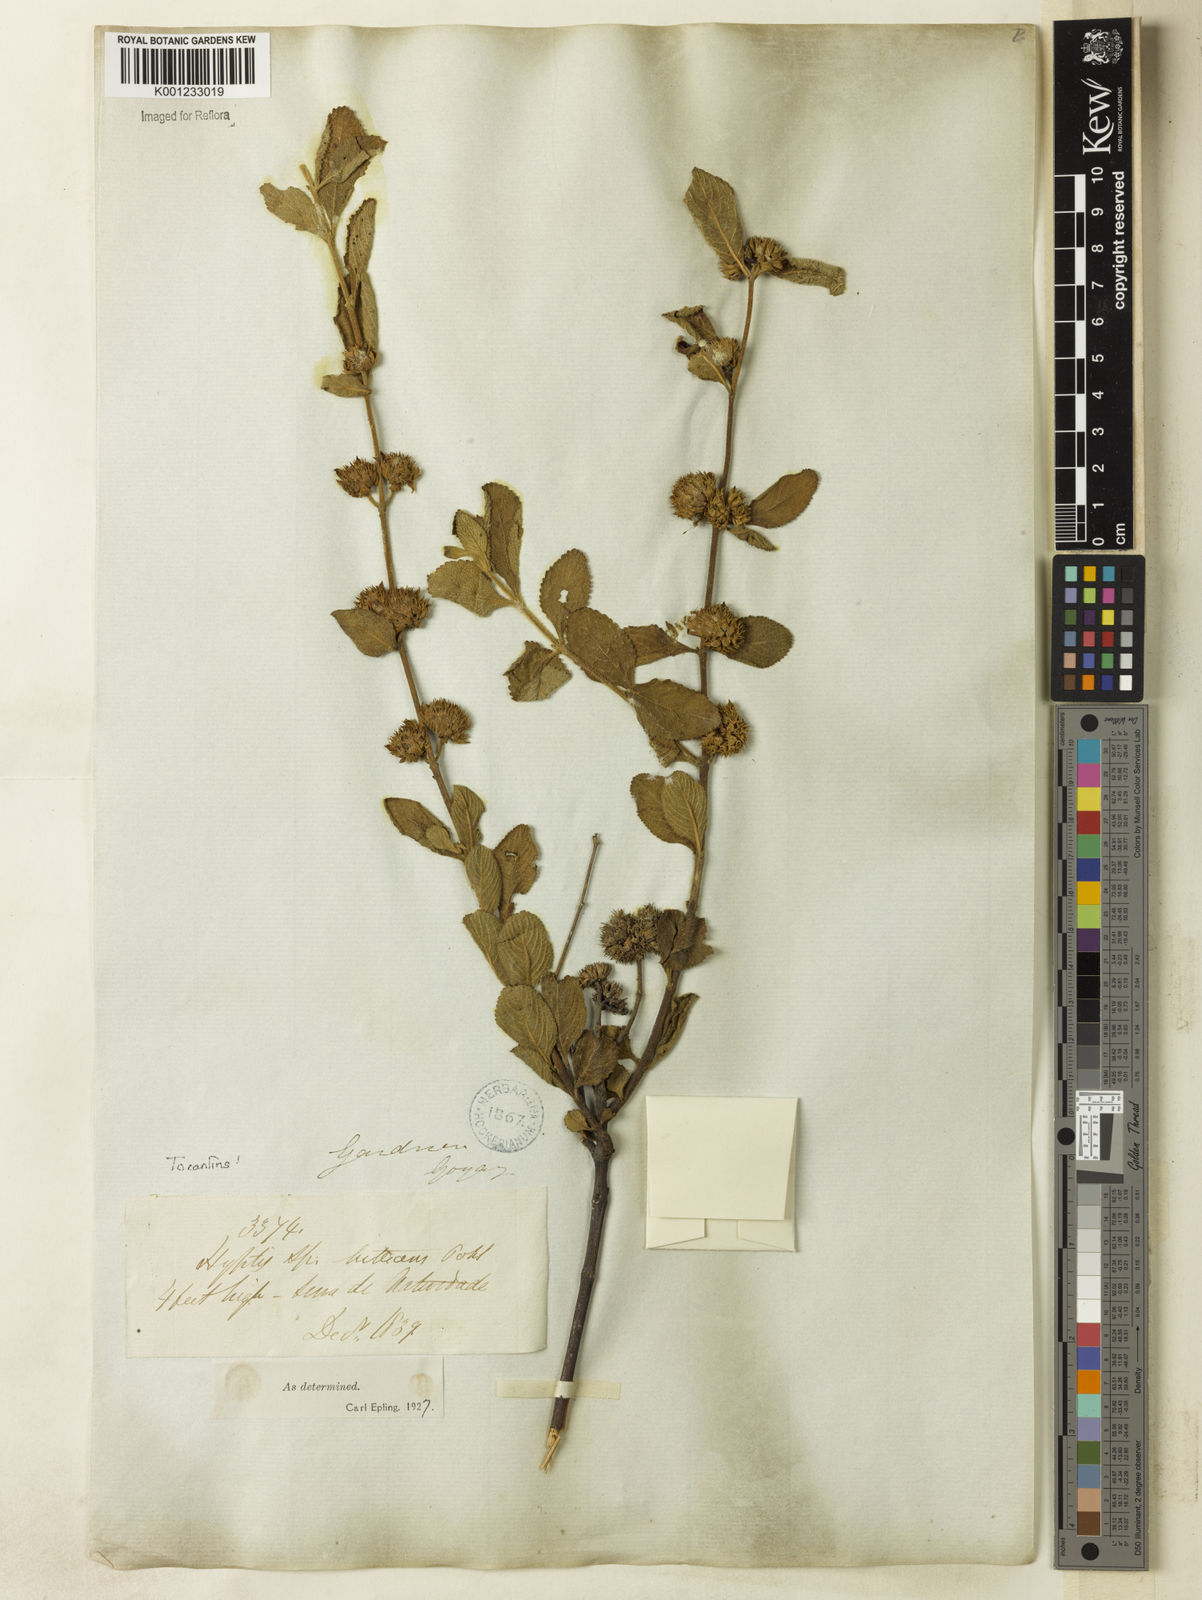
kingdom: Plantae
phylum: Tracheophyta
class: Magnoliopsida
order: Lamiales
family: Lamiaceae
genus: Hyptis
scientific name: Hyptis lutescens
